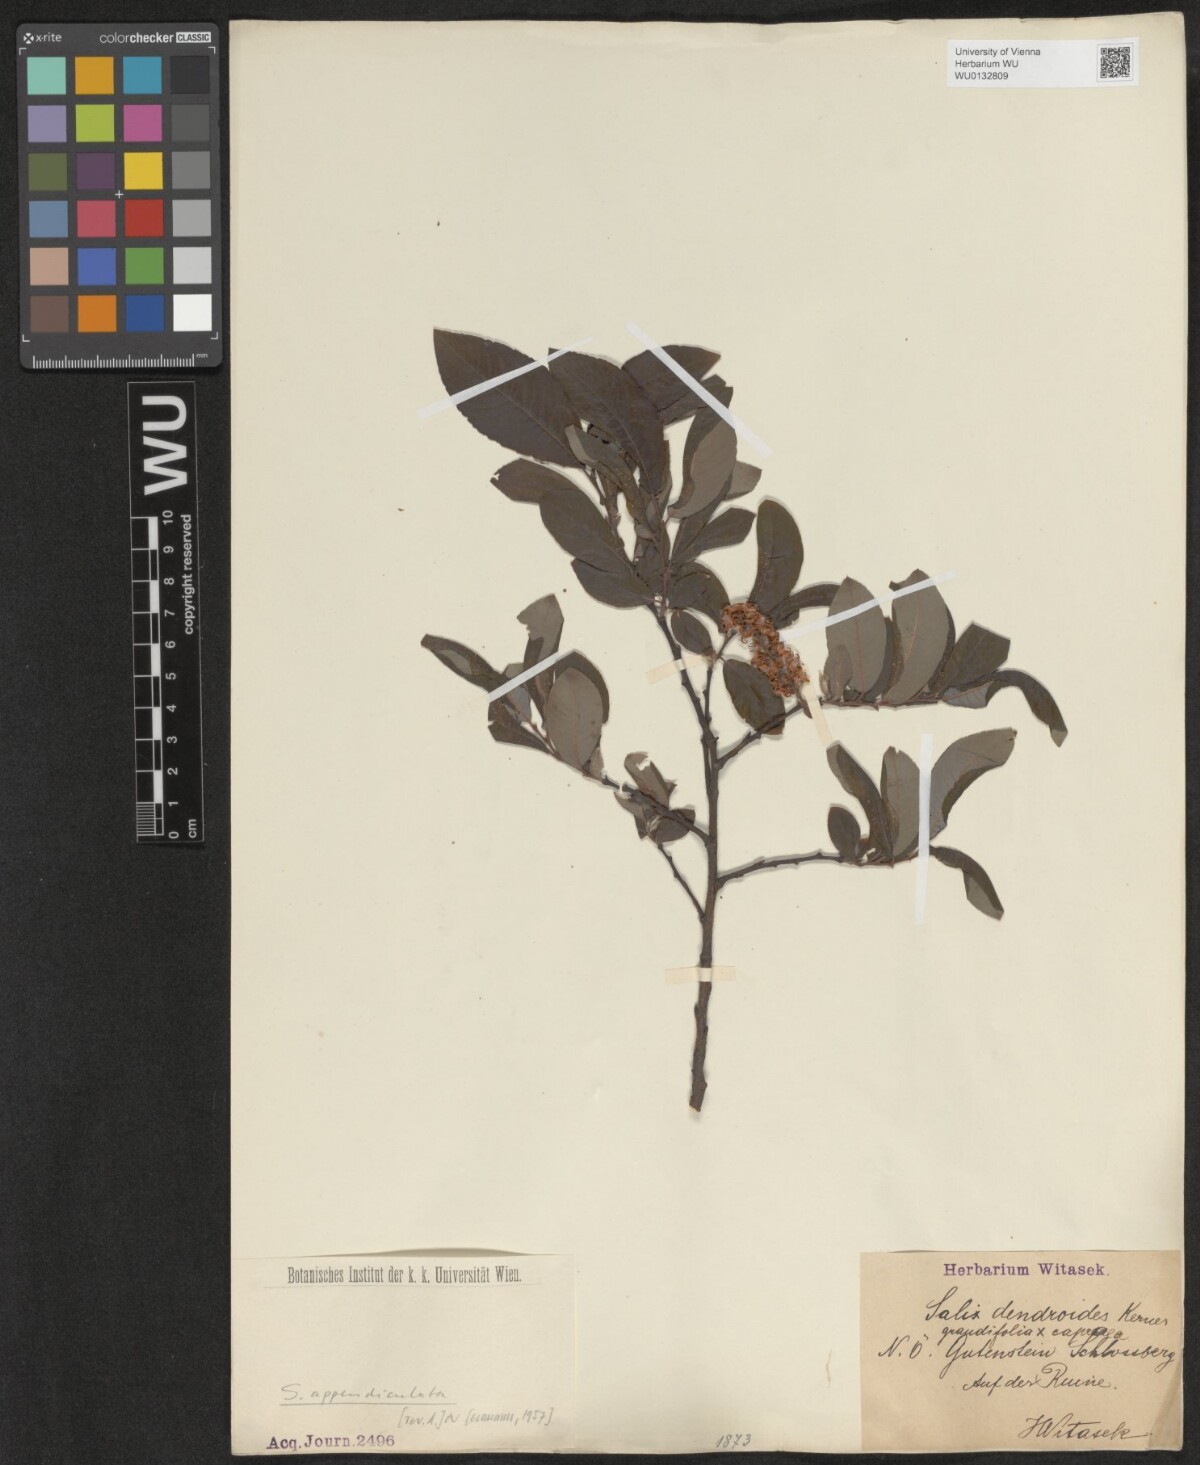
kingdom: Plantae
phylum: Tracheophyta
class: Magnoliopsida
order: Malpighiales
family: Salicaceae
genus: Salix
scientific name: Salix appendiculata
